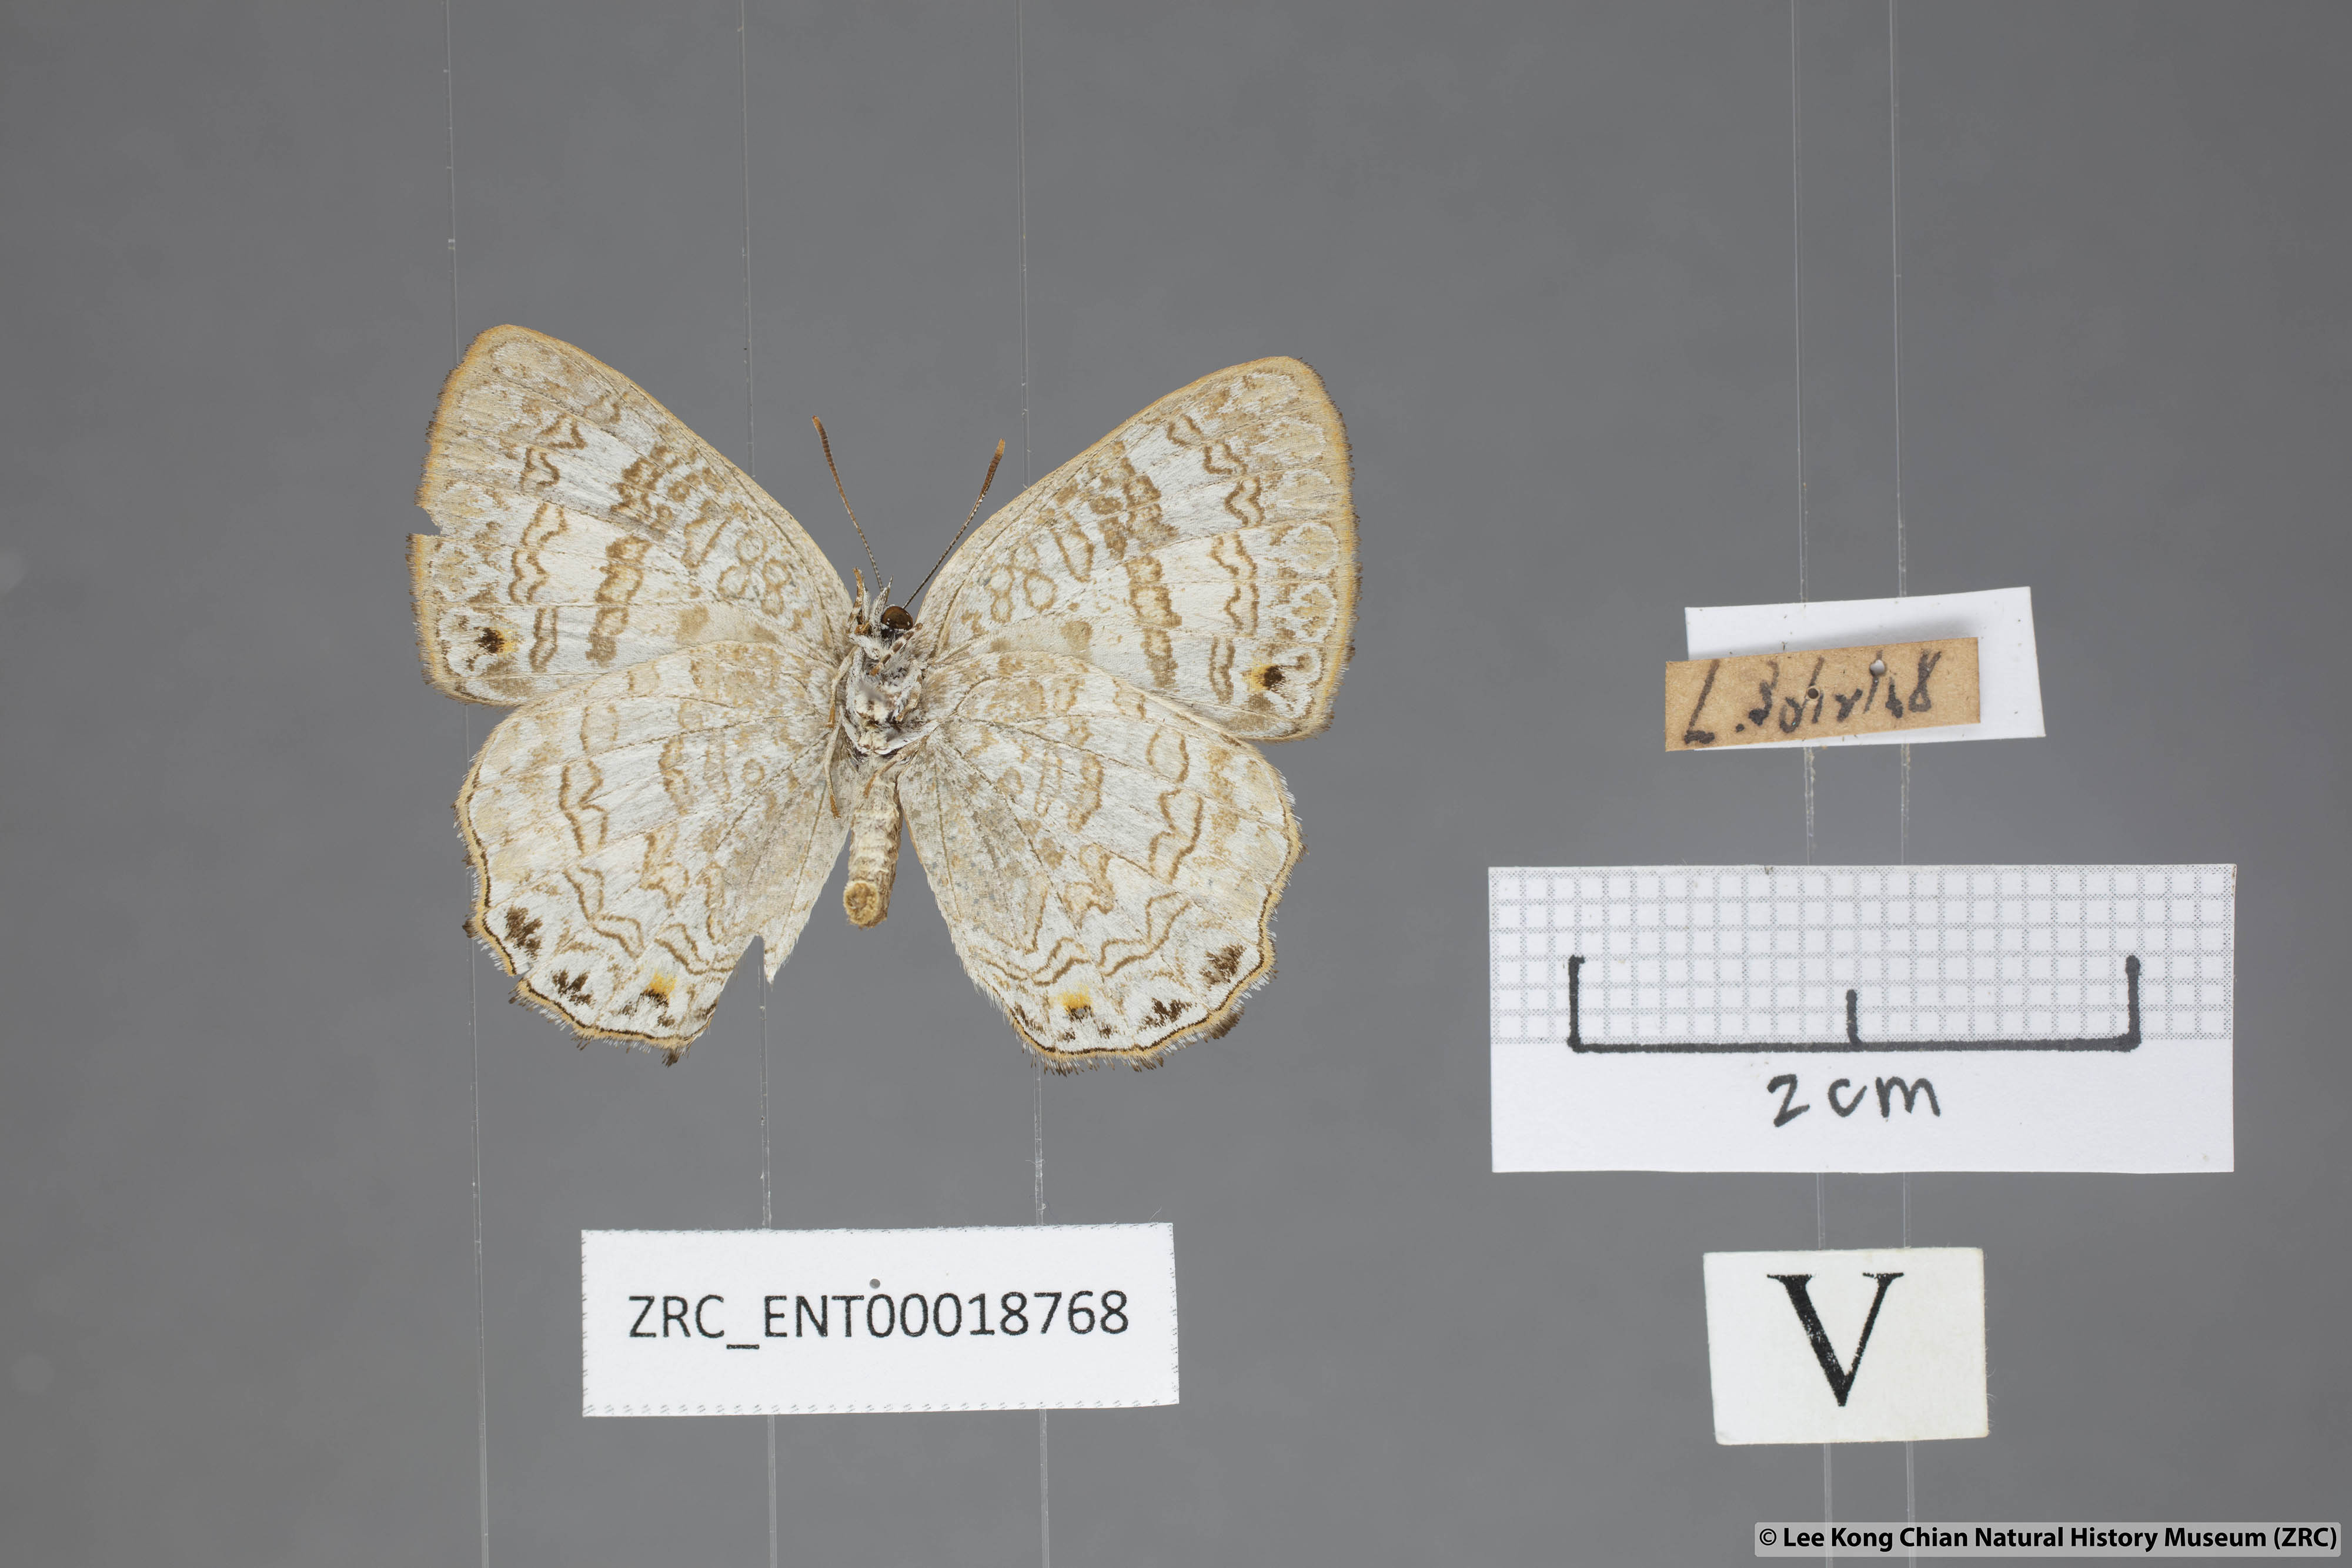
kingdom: Animalia
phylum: Arthropoda
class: Insecta
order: Lepidoptera
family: Lycaenidae
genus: Poritia
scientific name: Poritia erycinoides
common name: Blue gem
